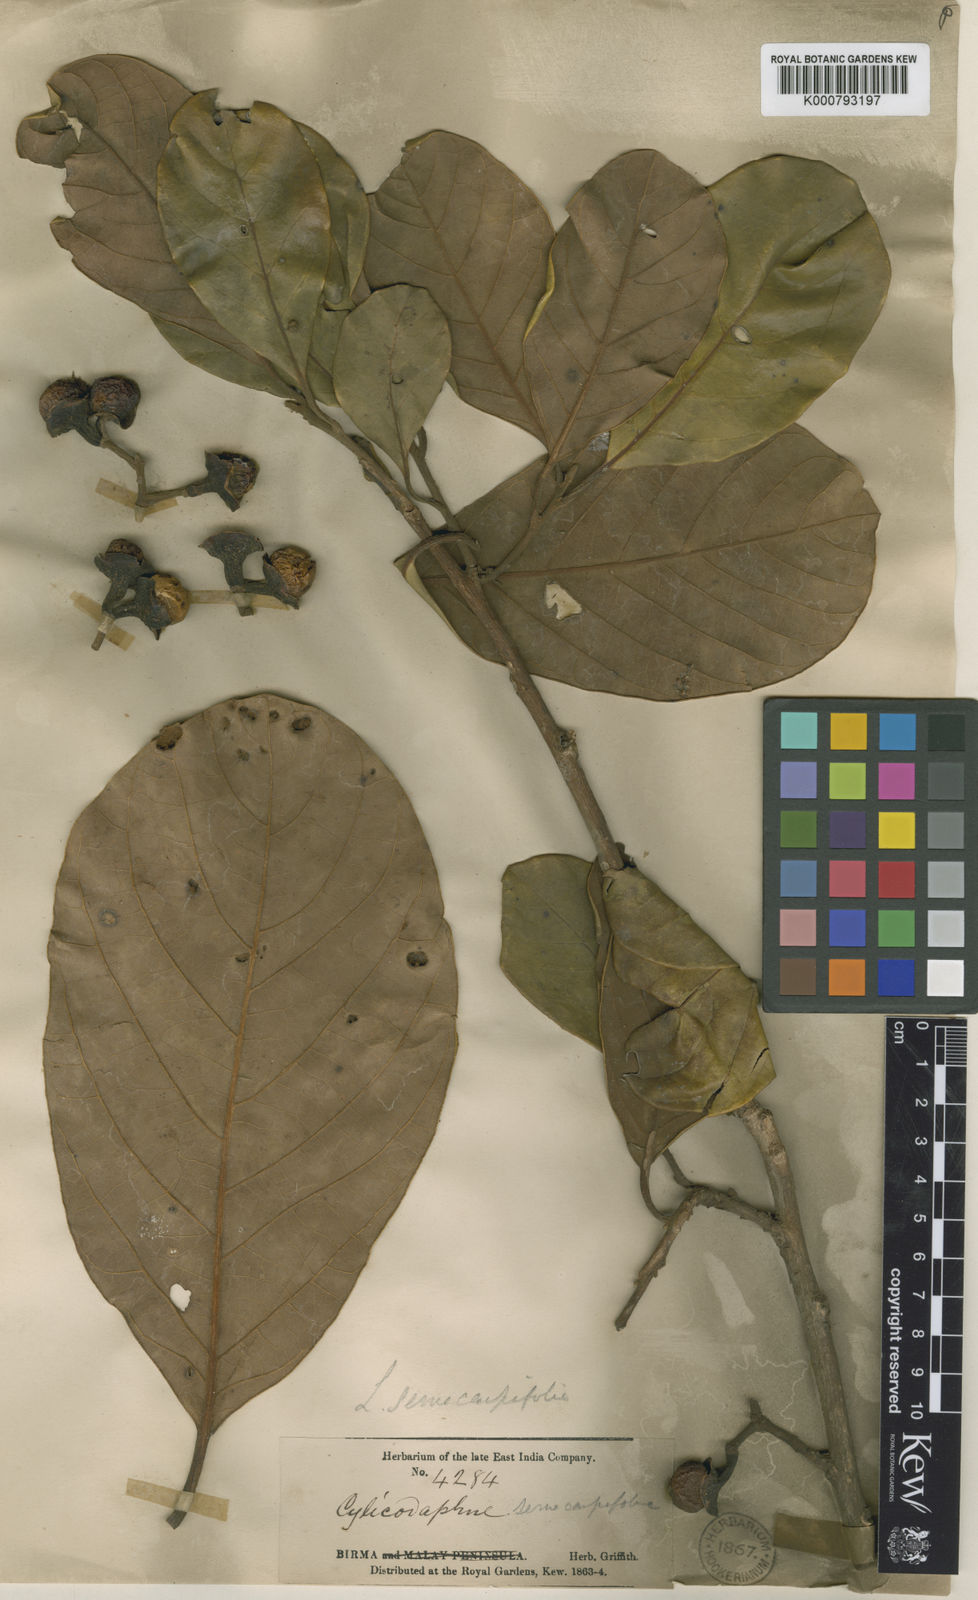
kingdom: Plantae
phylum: Tracheophyta
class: Magnoliopsida
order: Laurales
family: Lauraceae
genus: Litsea
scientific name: Litsea semecarpifolia
